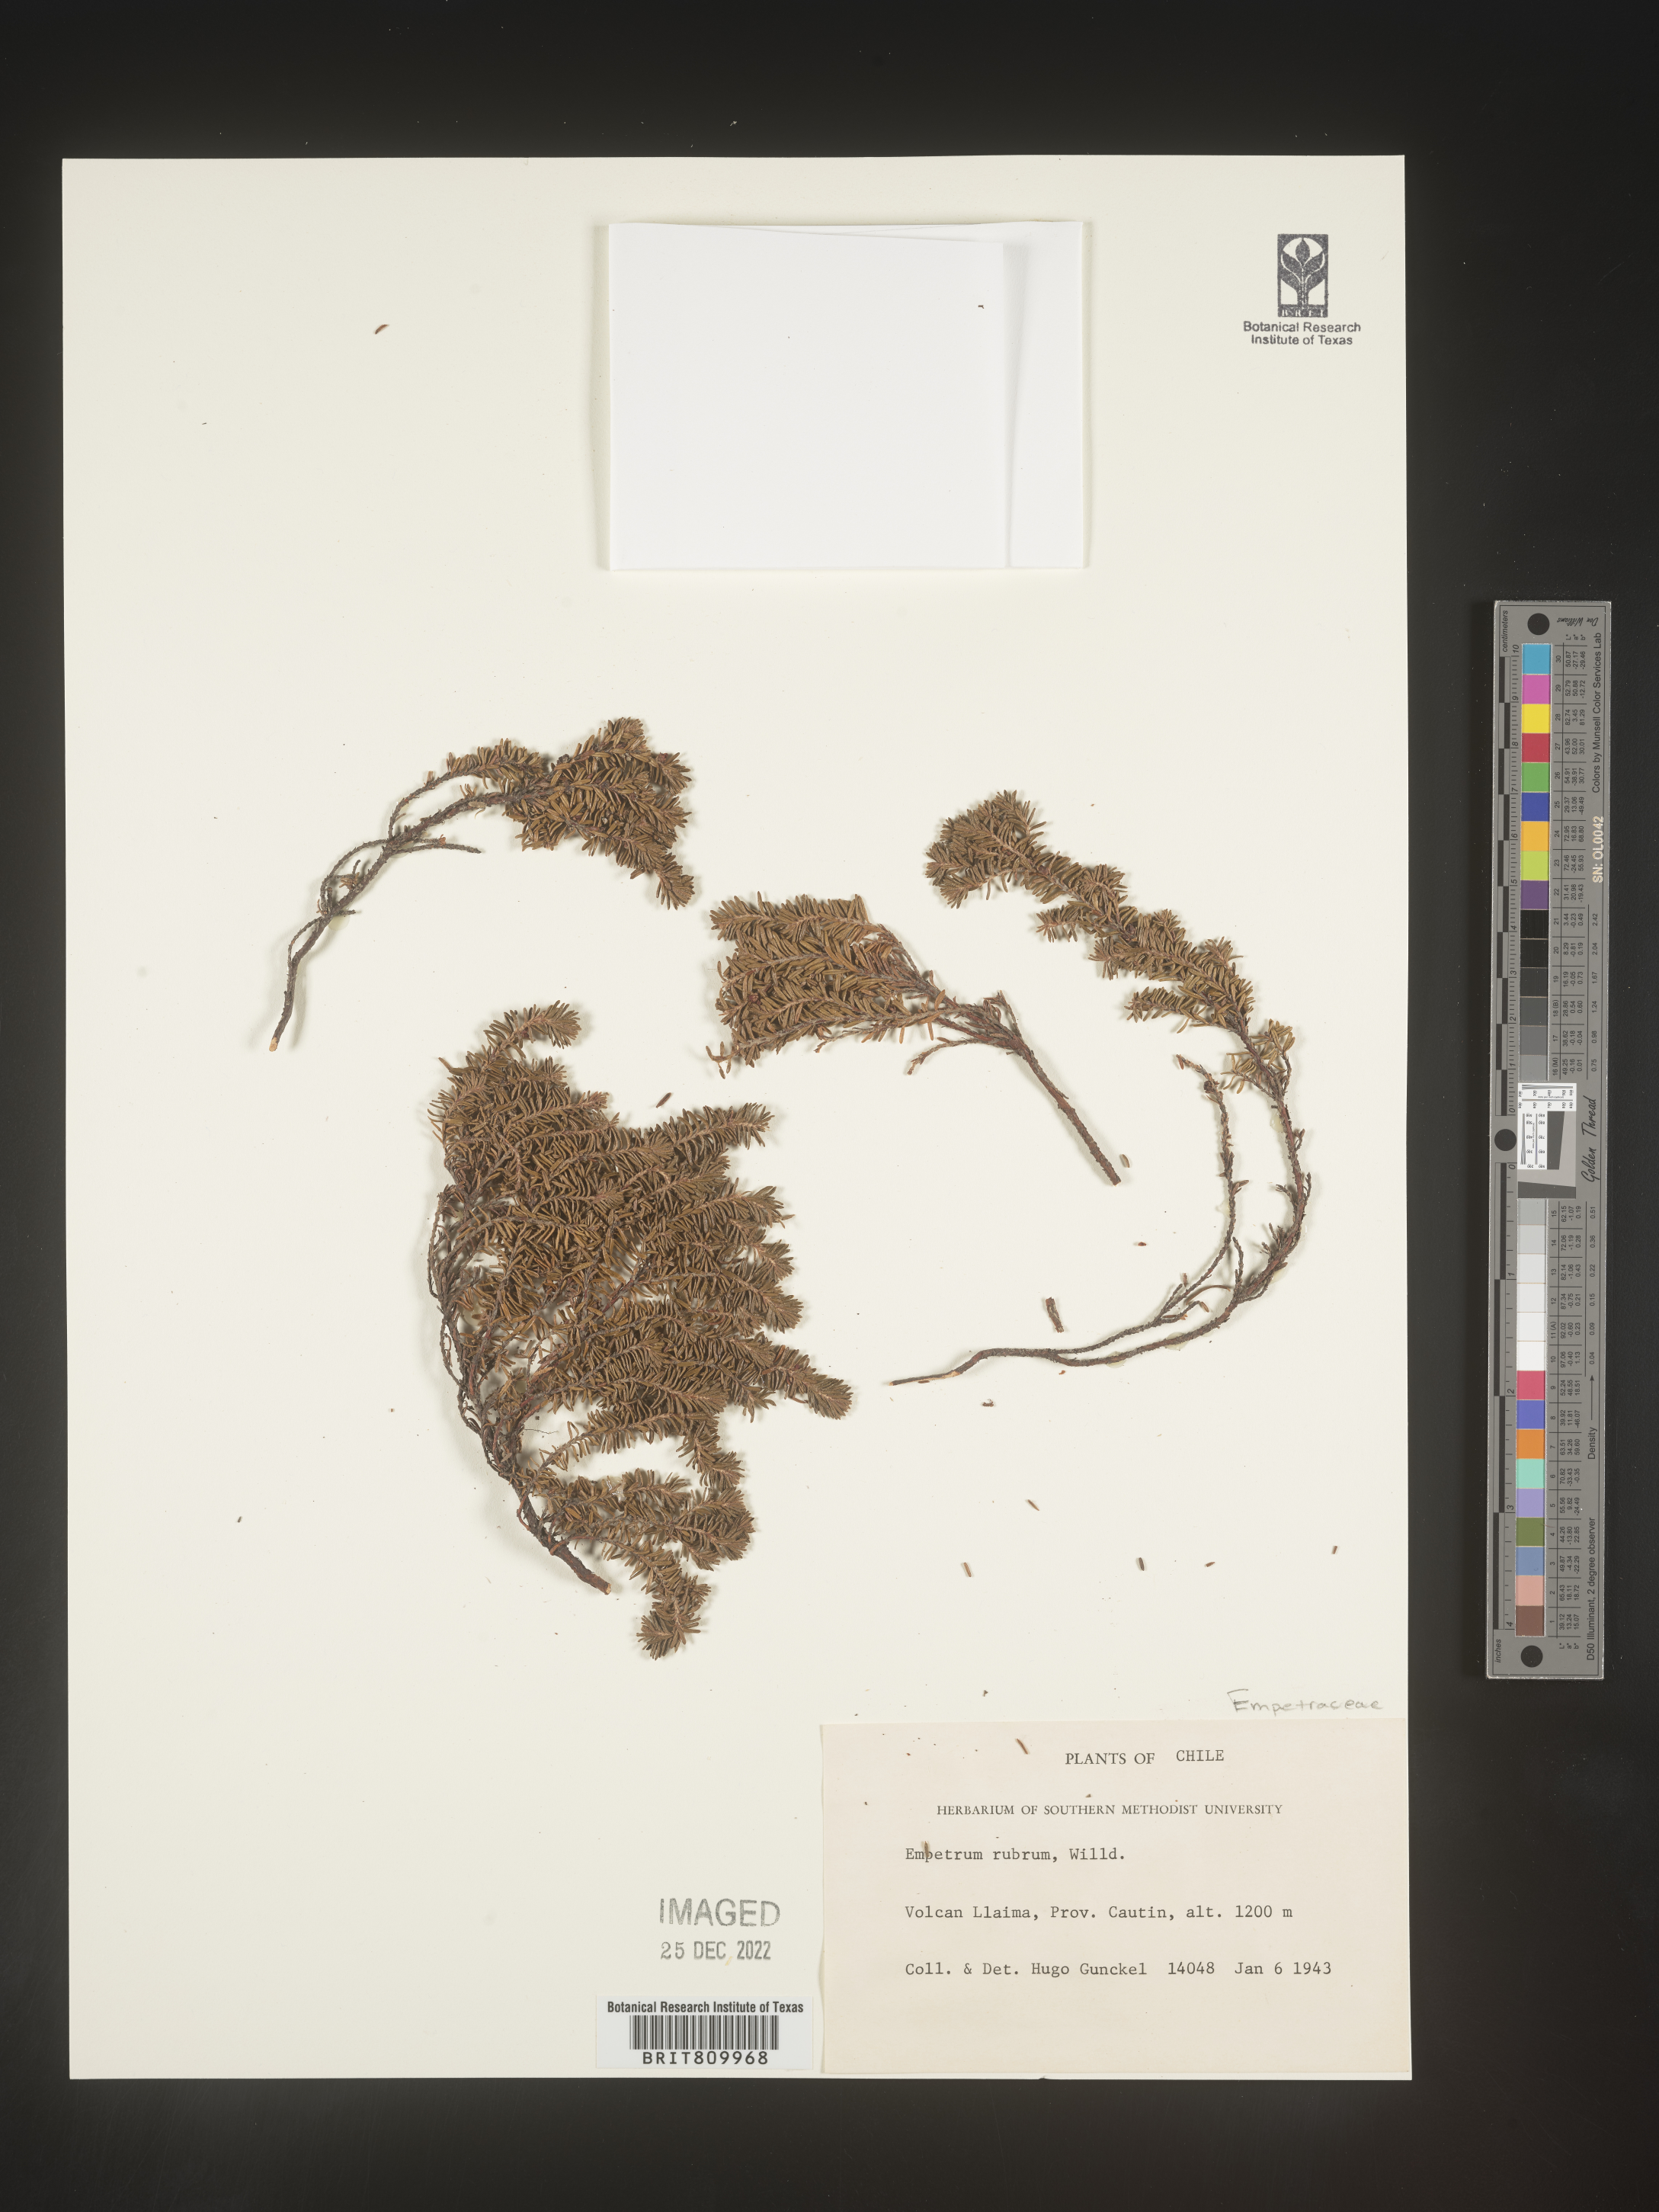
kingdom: Plantae
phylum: Tracheophyta
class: Magnoliopsida
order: Ericales
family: Ericaceae
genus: Empetrum
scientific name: Empetrum
